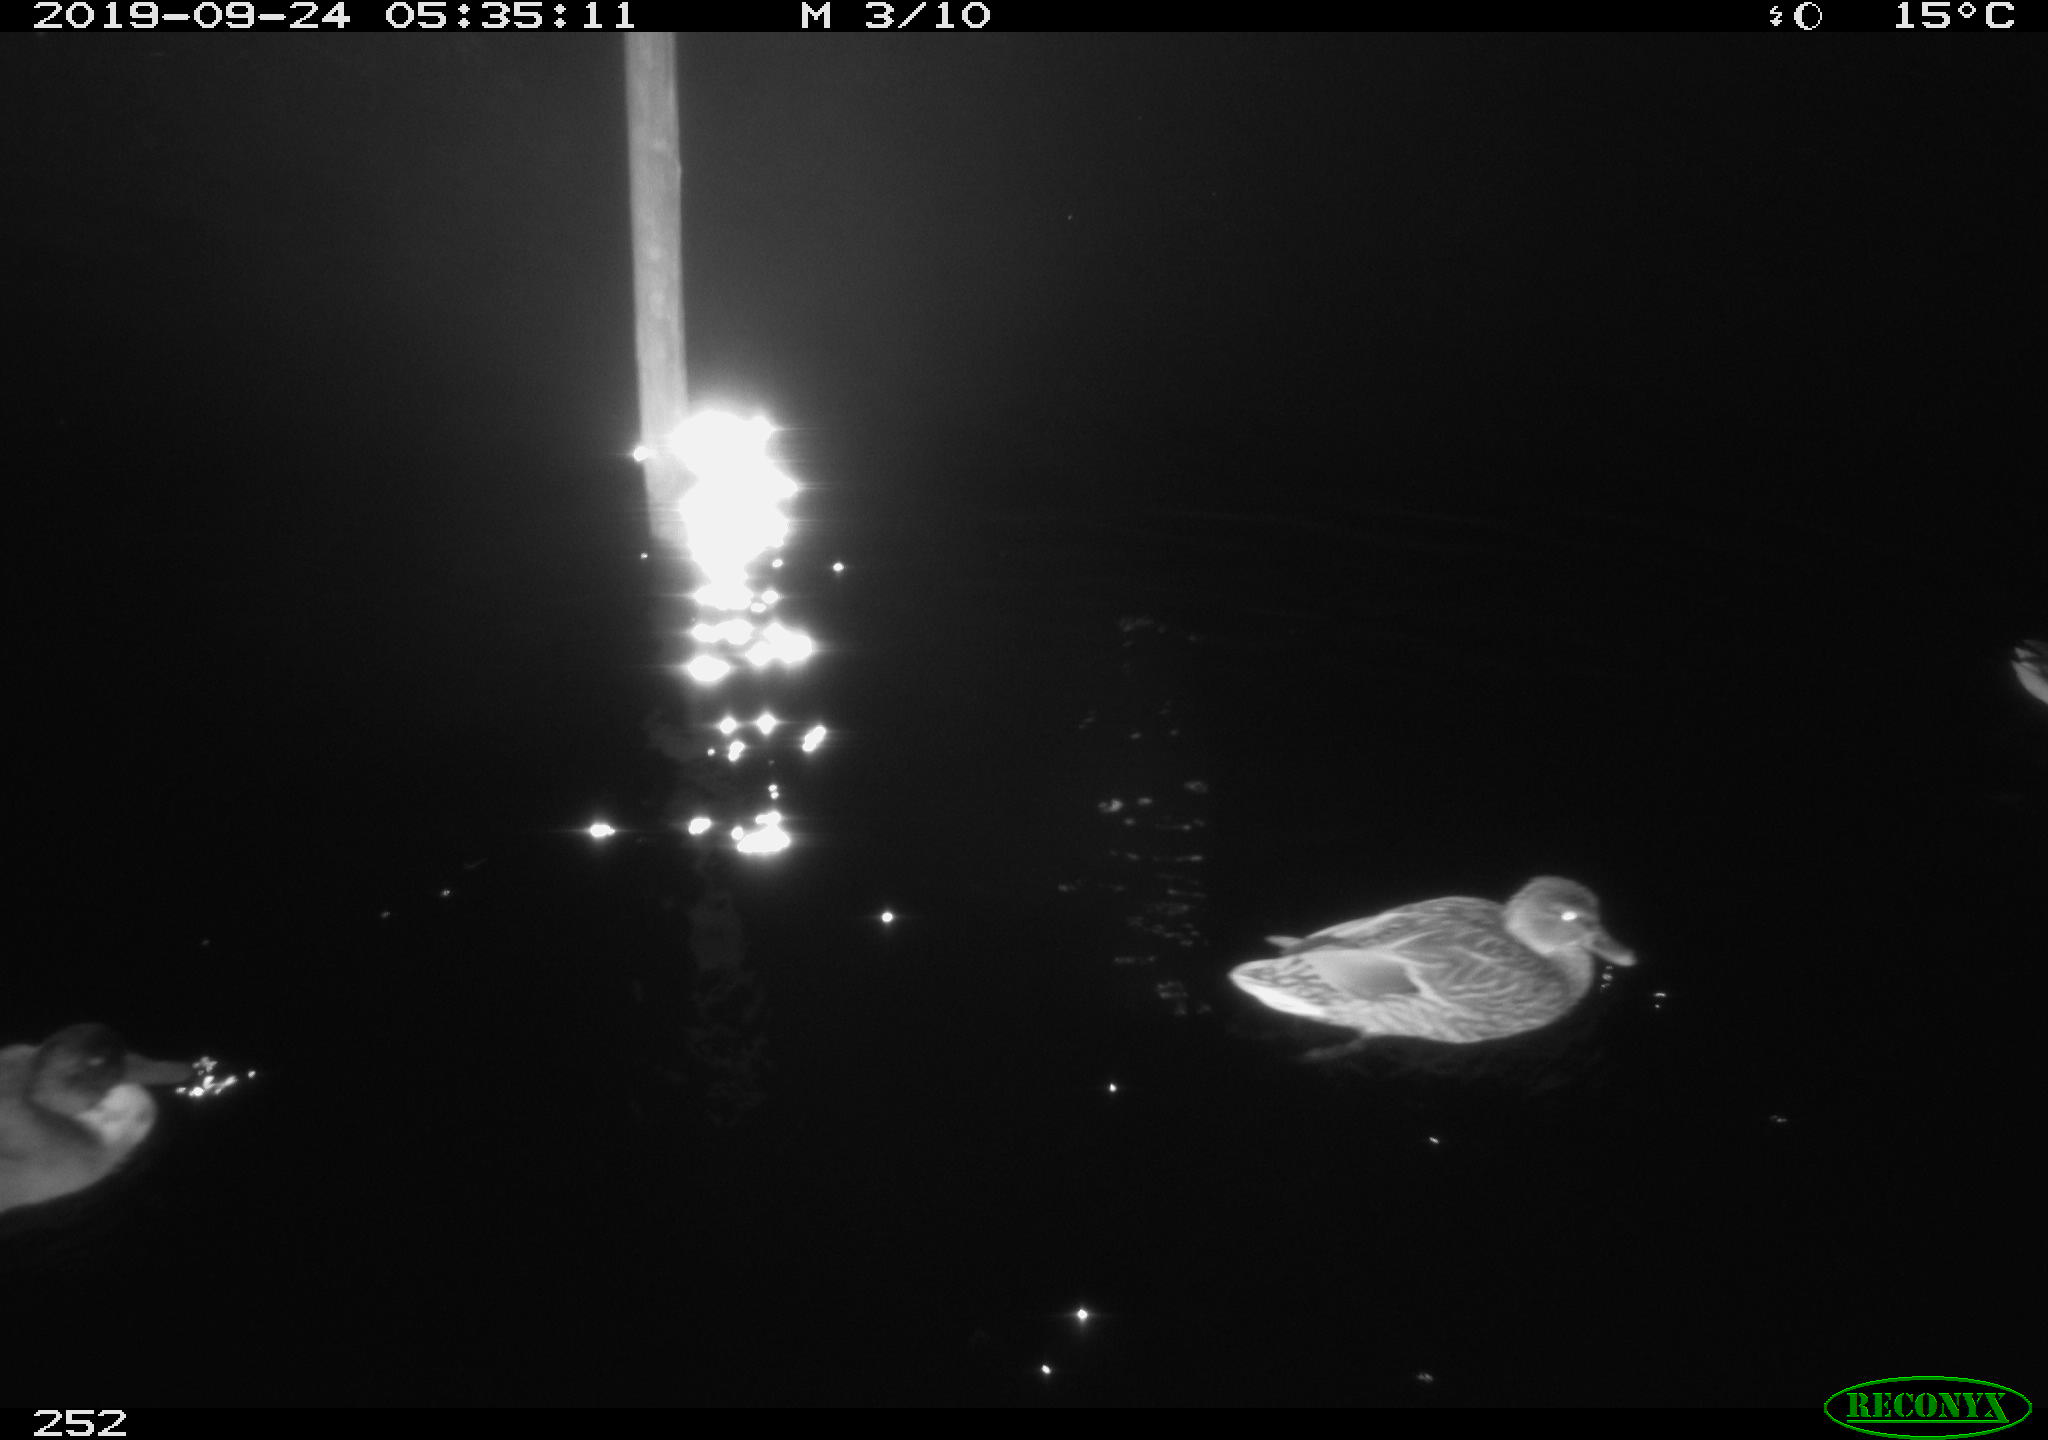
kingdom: Animalia
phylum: Chordata
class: Aves
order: Anseriformes
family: Anatidae
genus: Anas
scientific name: Anas platyrhynchos
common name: Mallard
